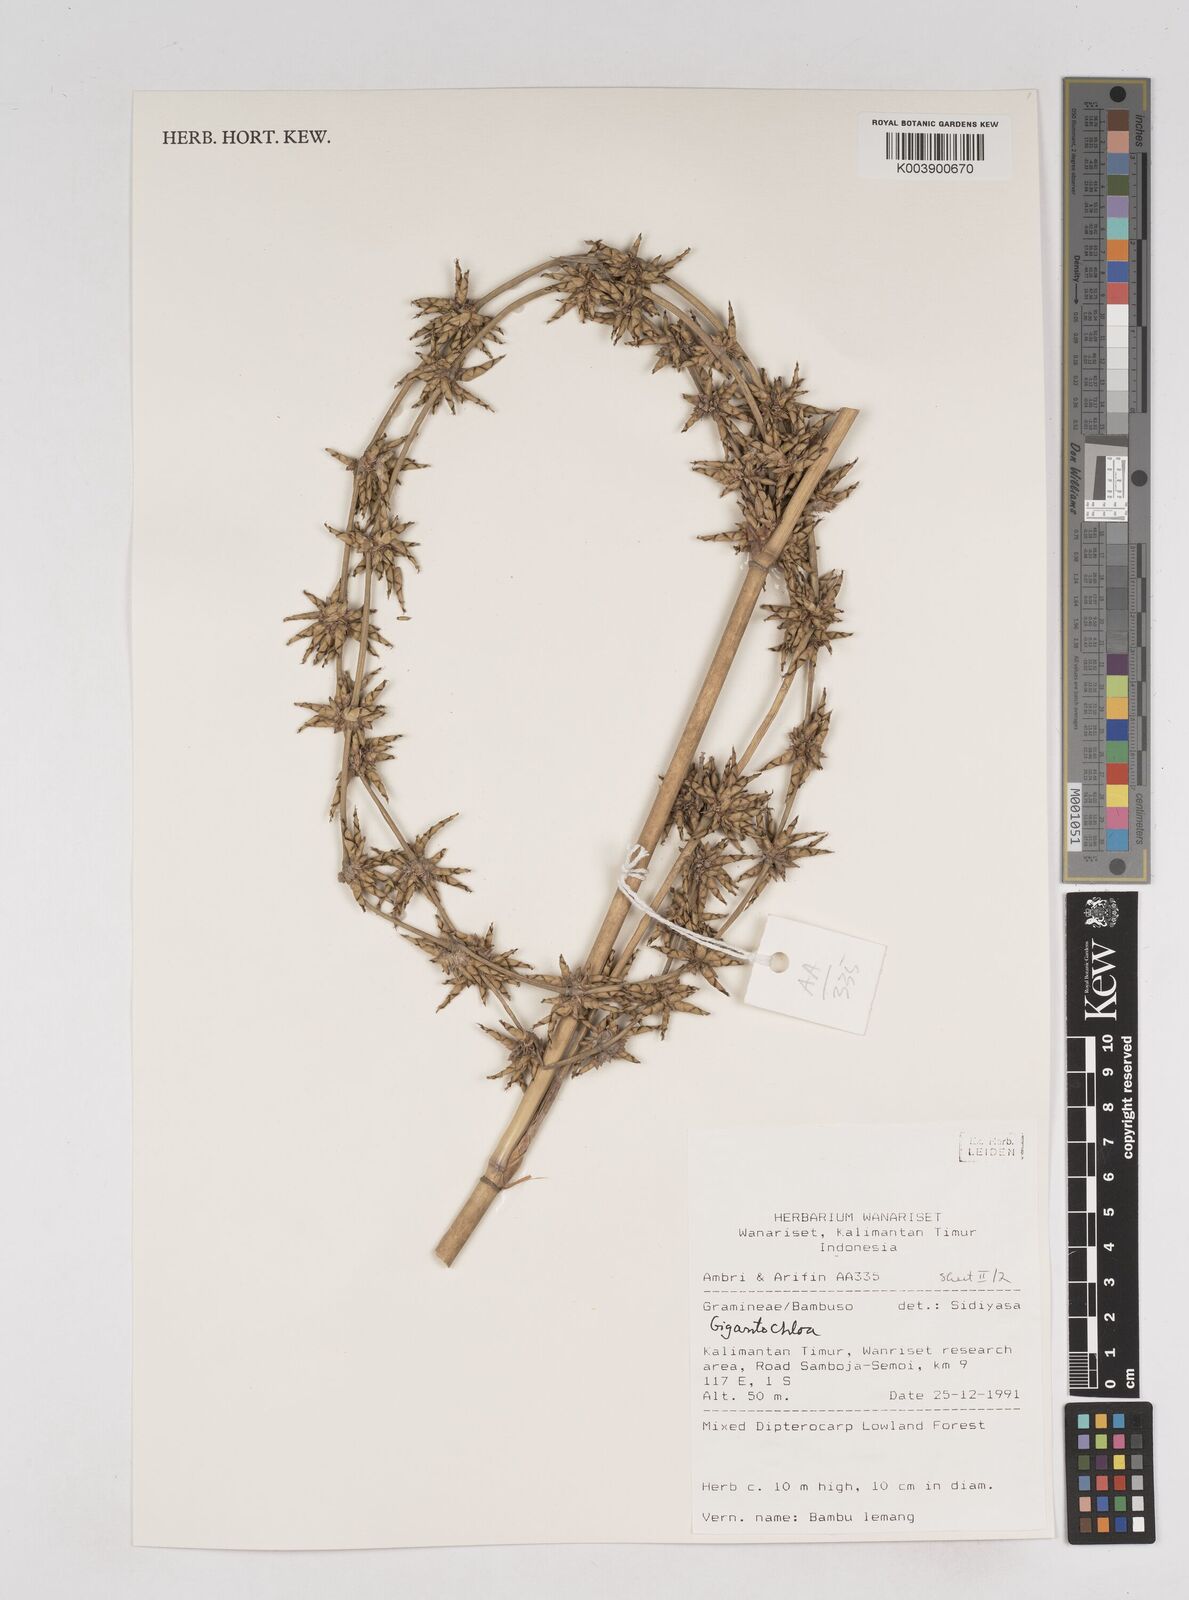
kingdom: Plantae
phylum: Tracheophyta
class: Liliopsida
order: Poales
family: Poaceae
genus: Gigantochloa
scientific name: Gigantochloa
